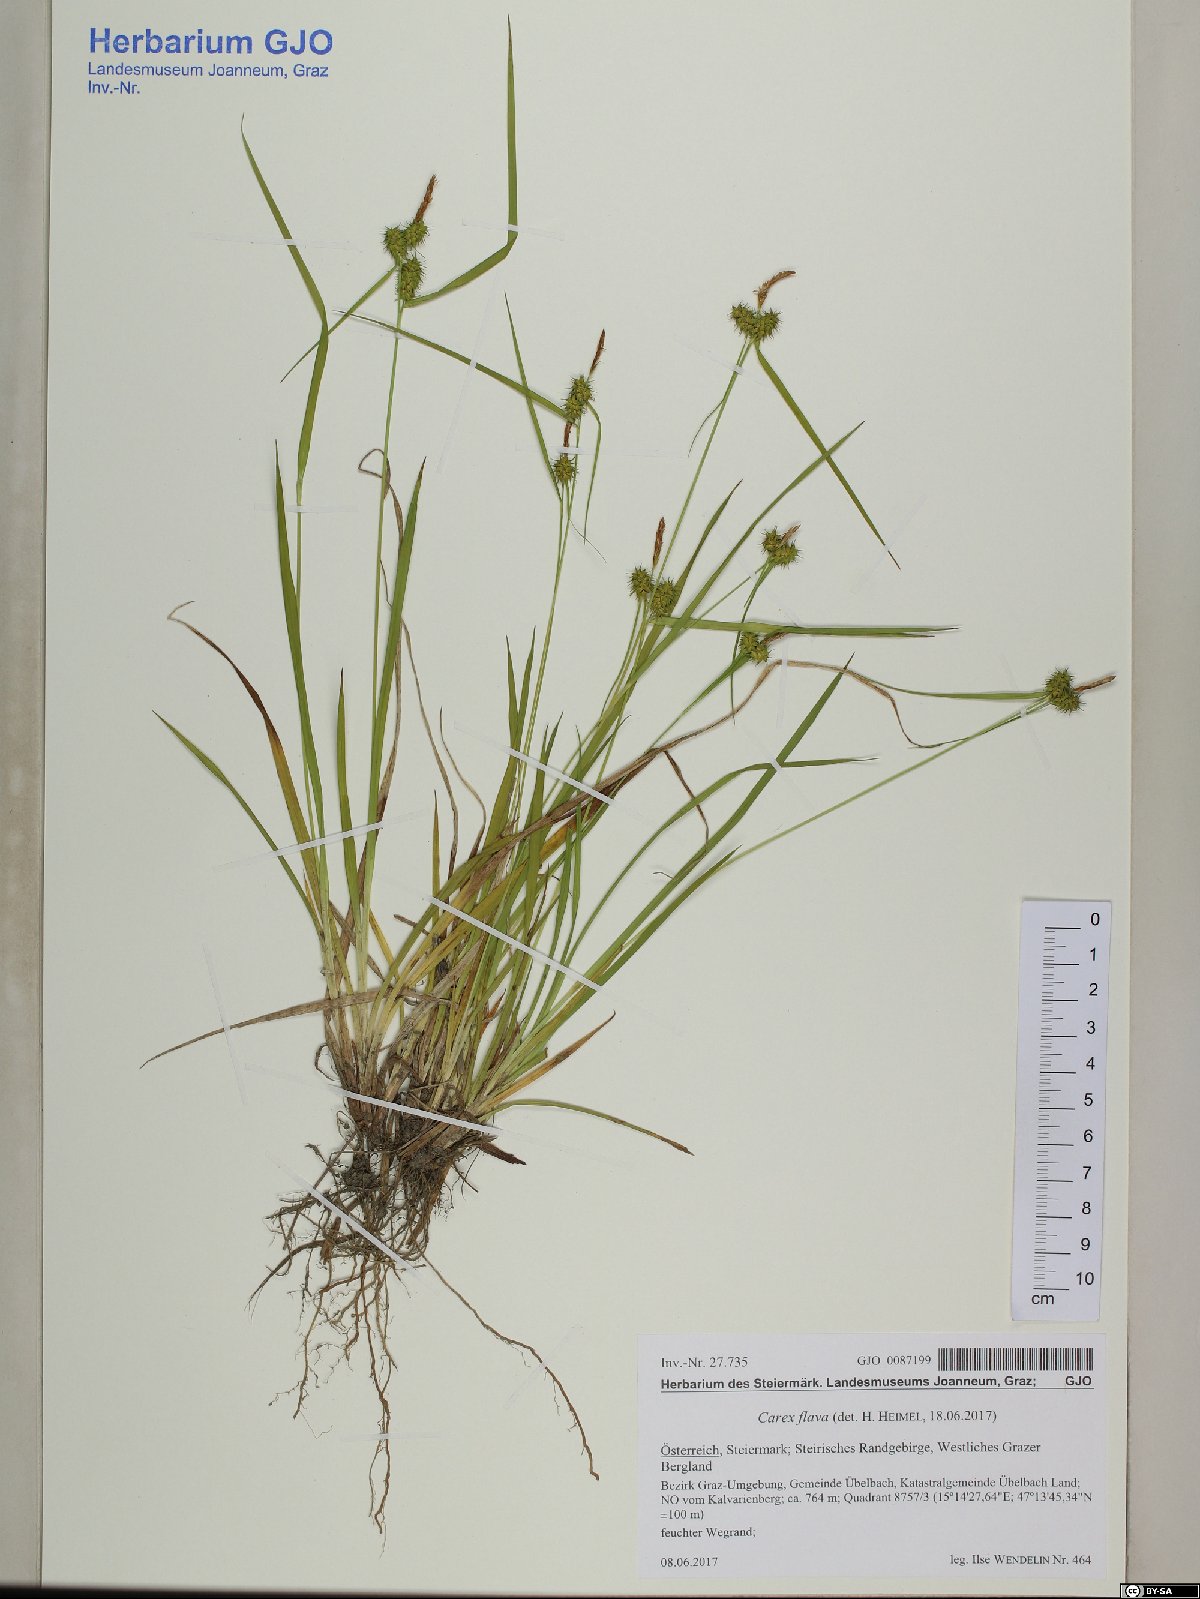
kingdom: Plantae
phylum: Tracheophyta
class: Liliopsida
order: Poales
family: Cyperaceae
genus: Carex
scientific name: Carex flava
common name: Large yellow-sedge
